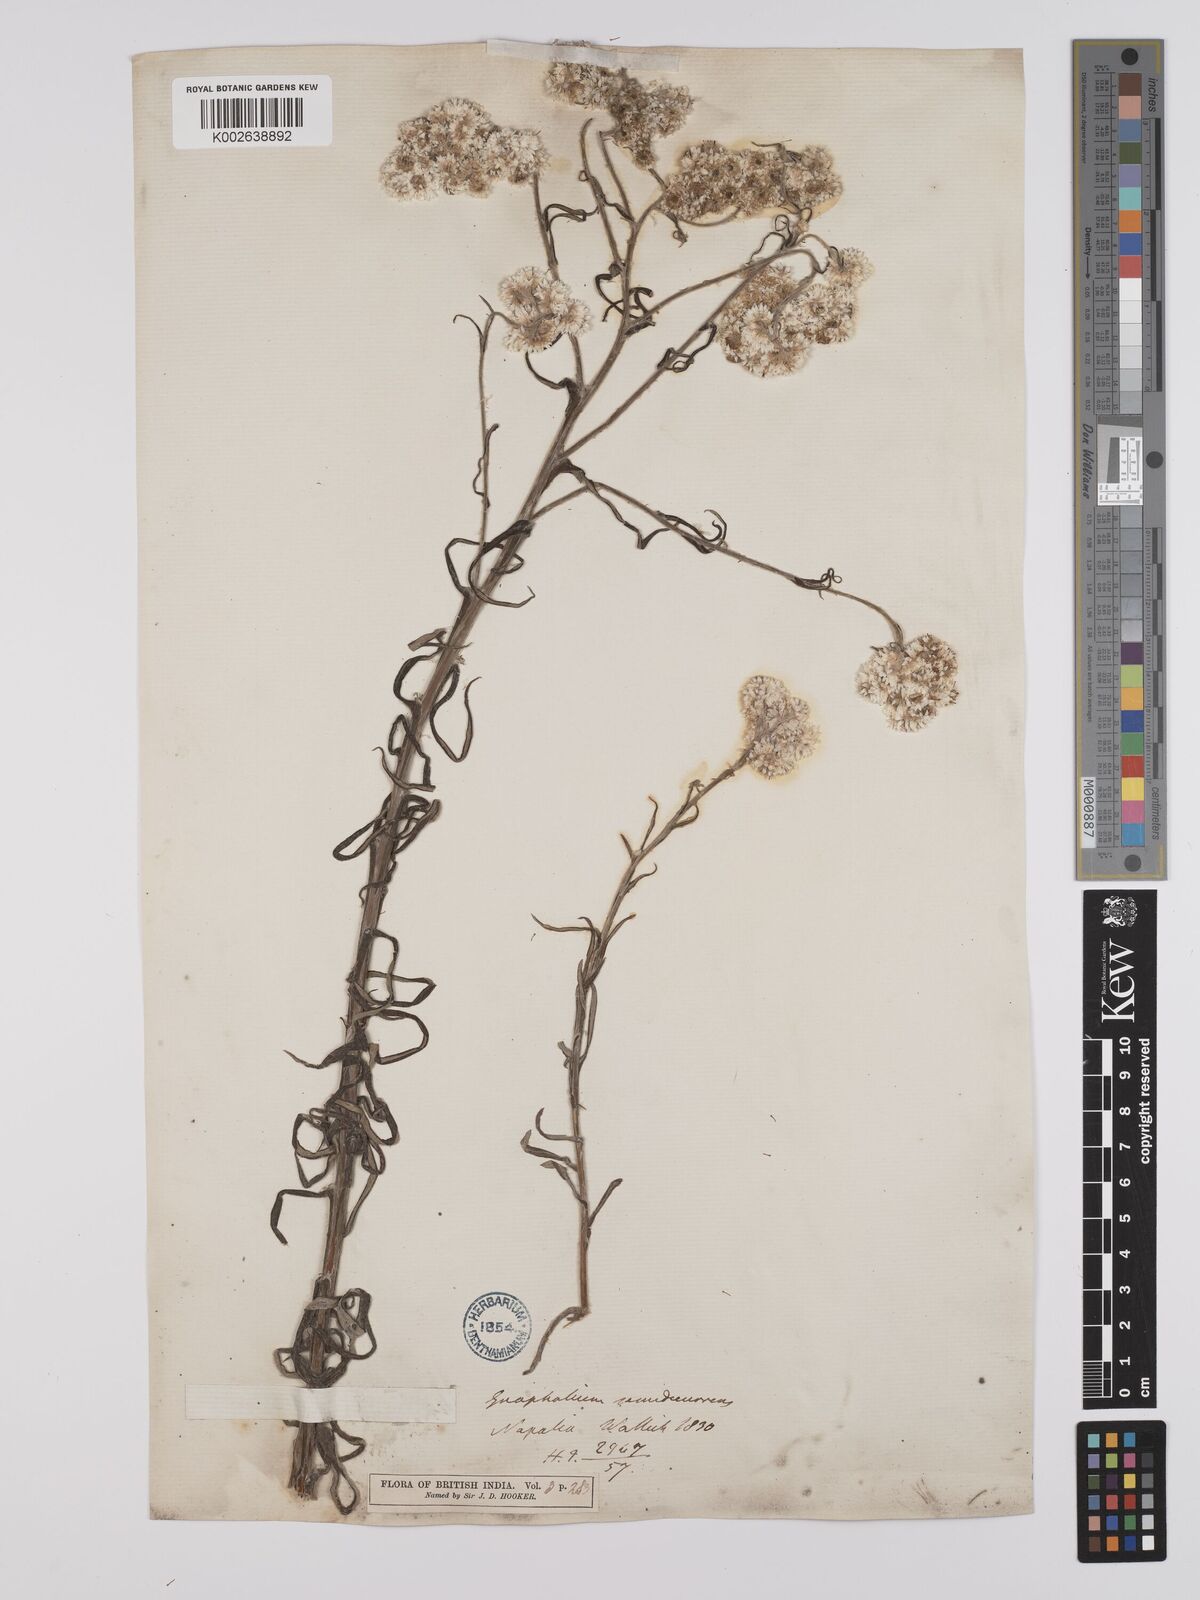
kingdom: Plantae
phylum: Tracheophyta
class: Magnoliopsida
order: Asterales
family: Asteraceae
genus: Anaphalis
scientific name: Anaphalis busua
